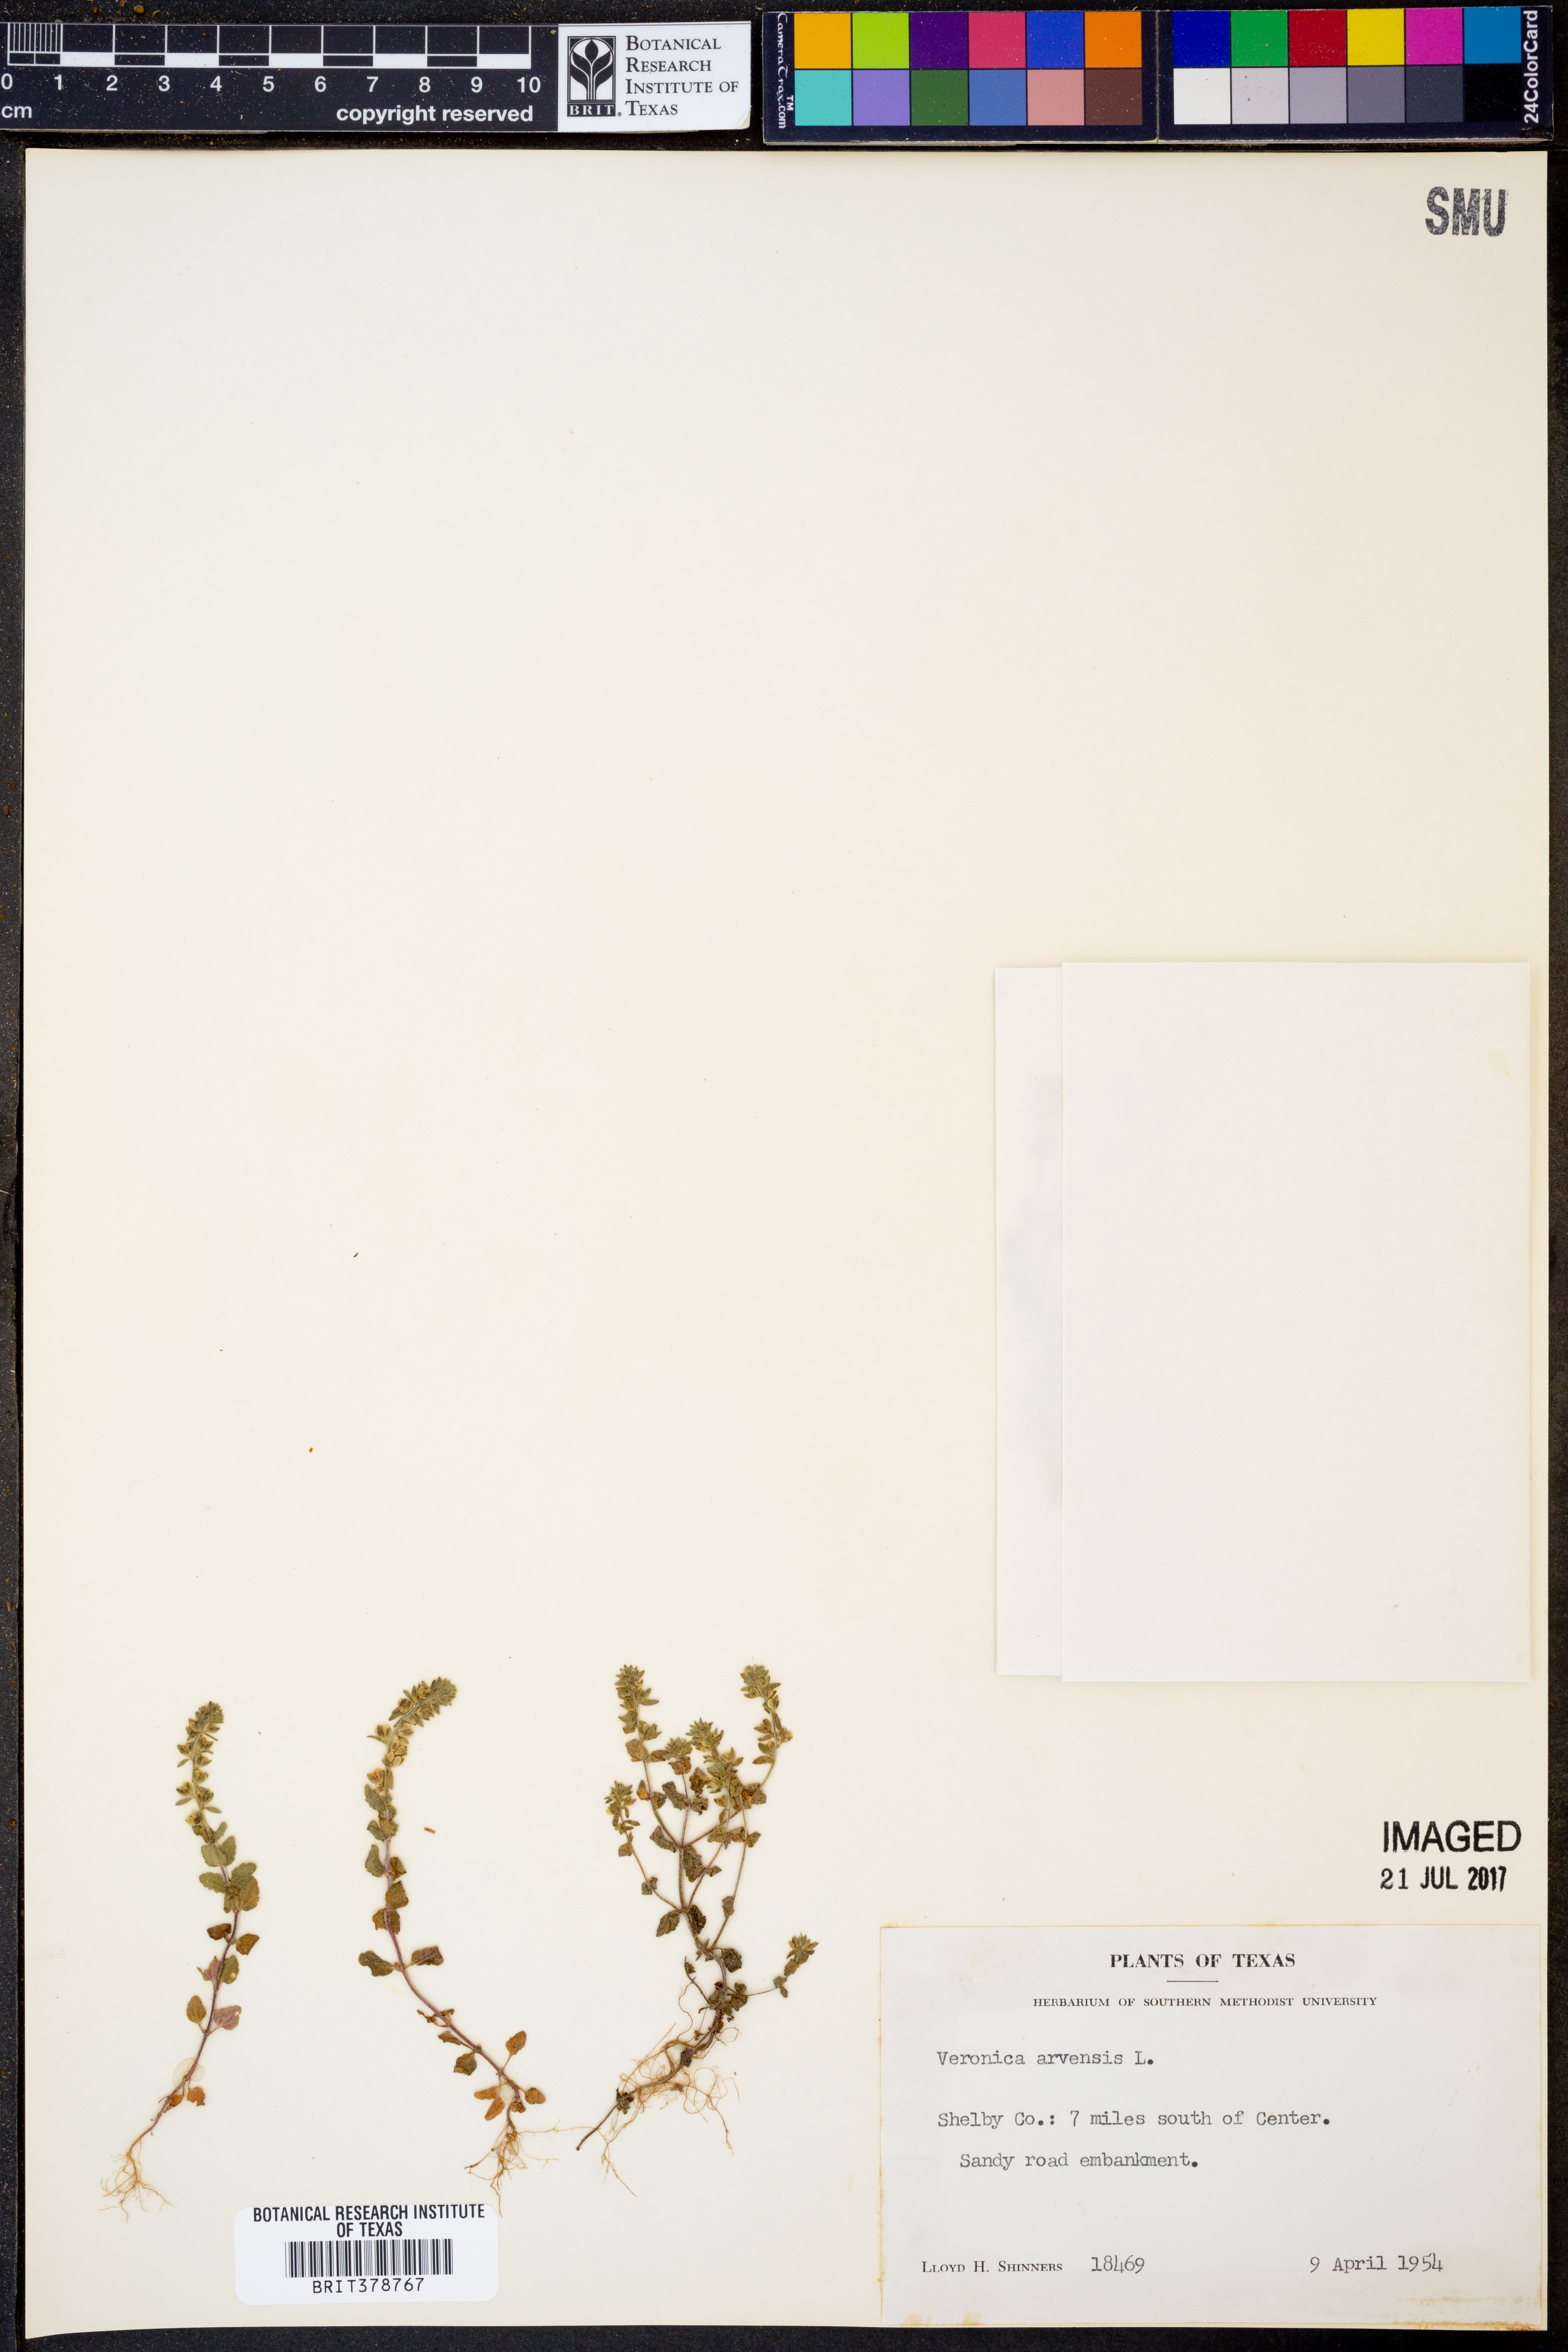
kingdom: Plantae
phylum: Tracheophyta
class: Magnoliopsida
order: Lamiales
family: Plantaginaceae
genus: Veronica
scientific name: Veronica arvensis
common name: Corn speedwell
